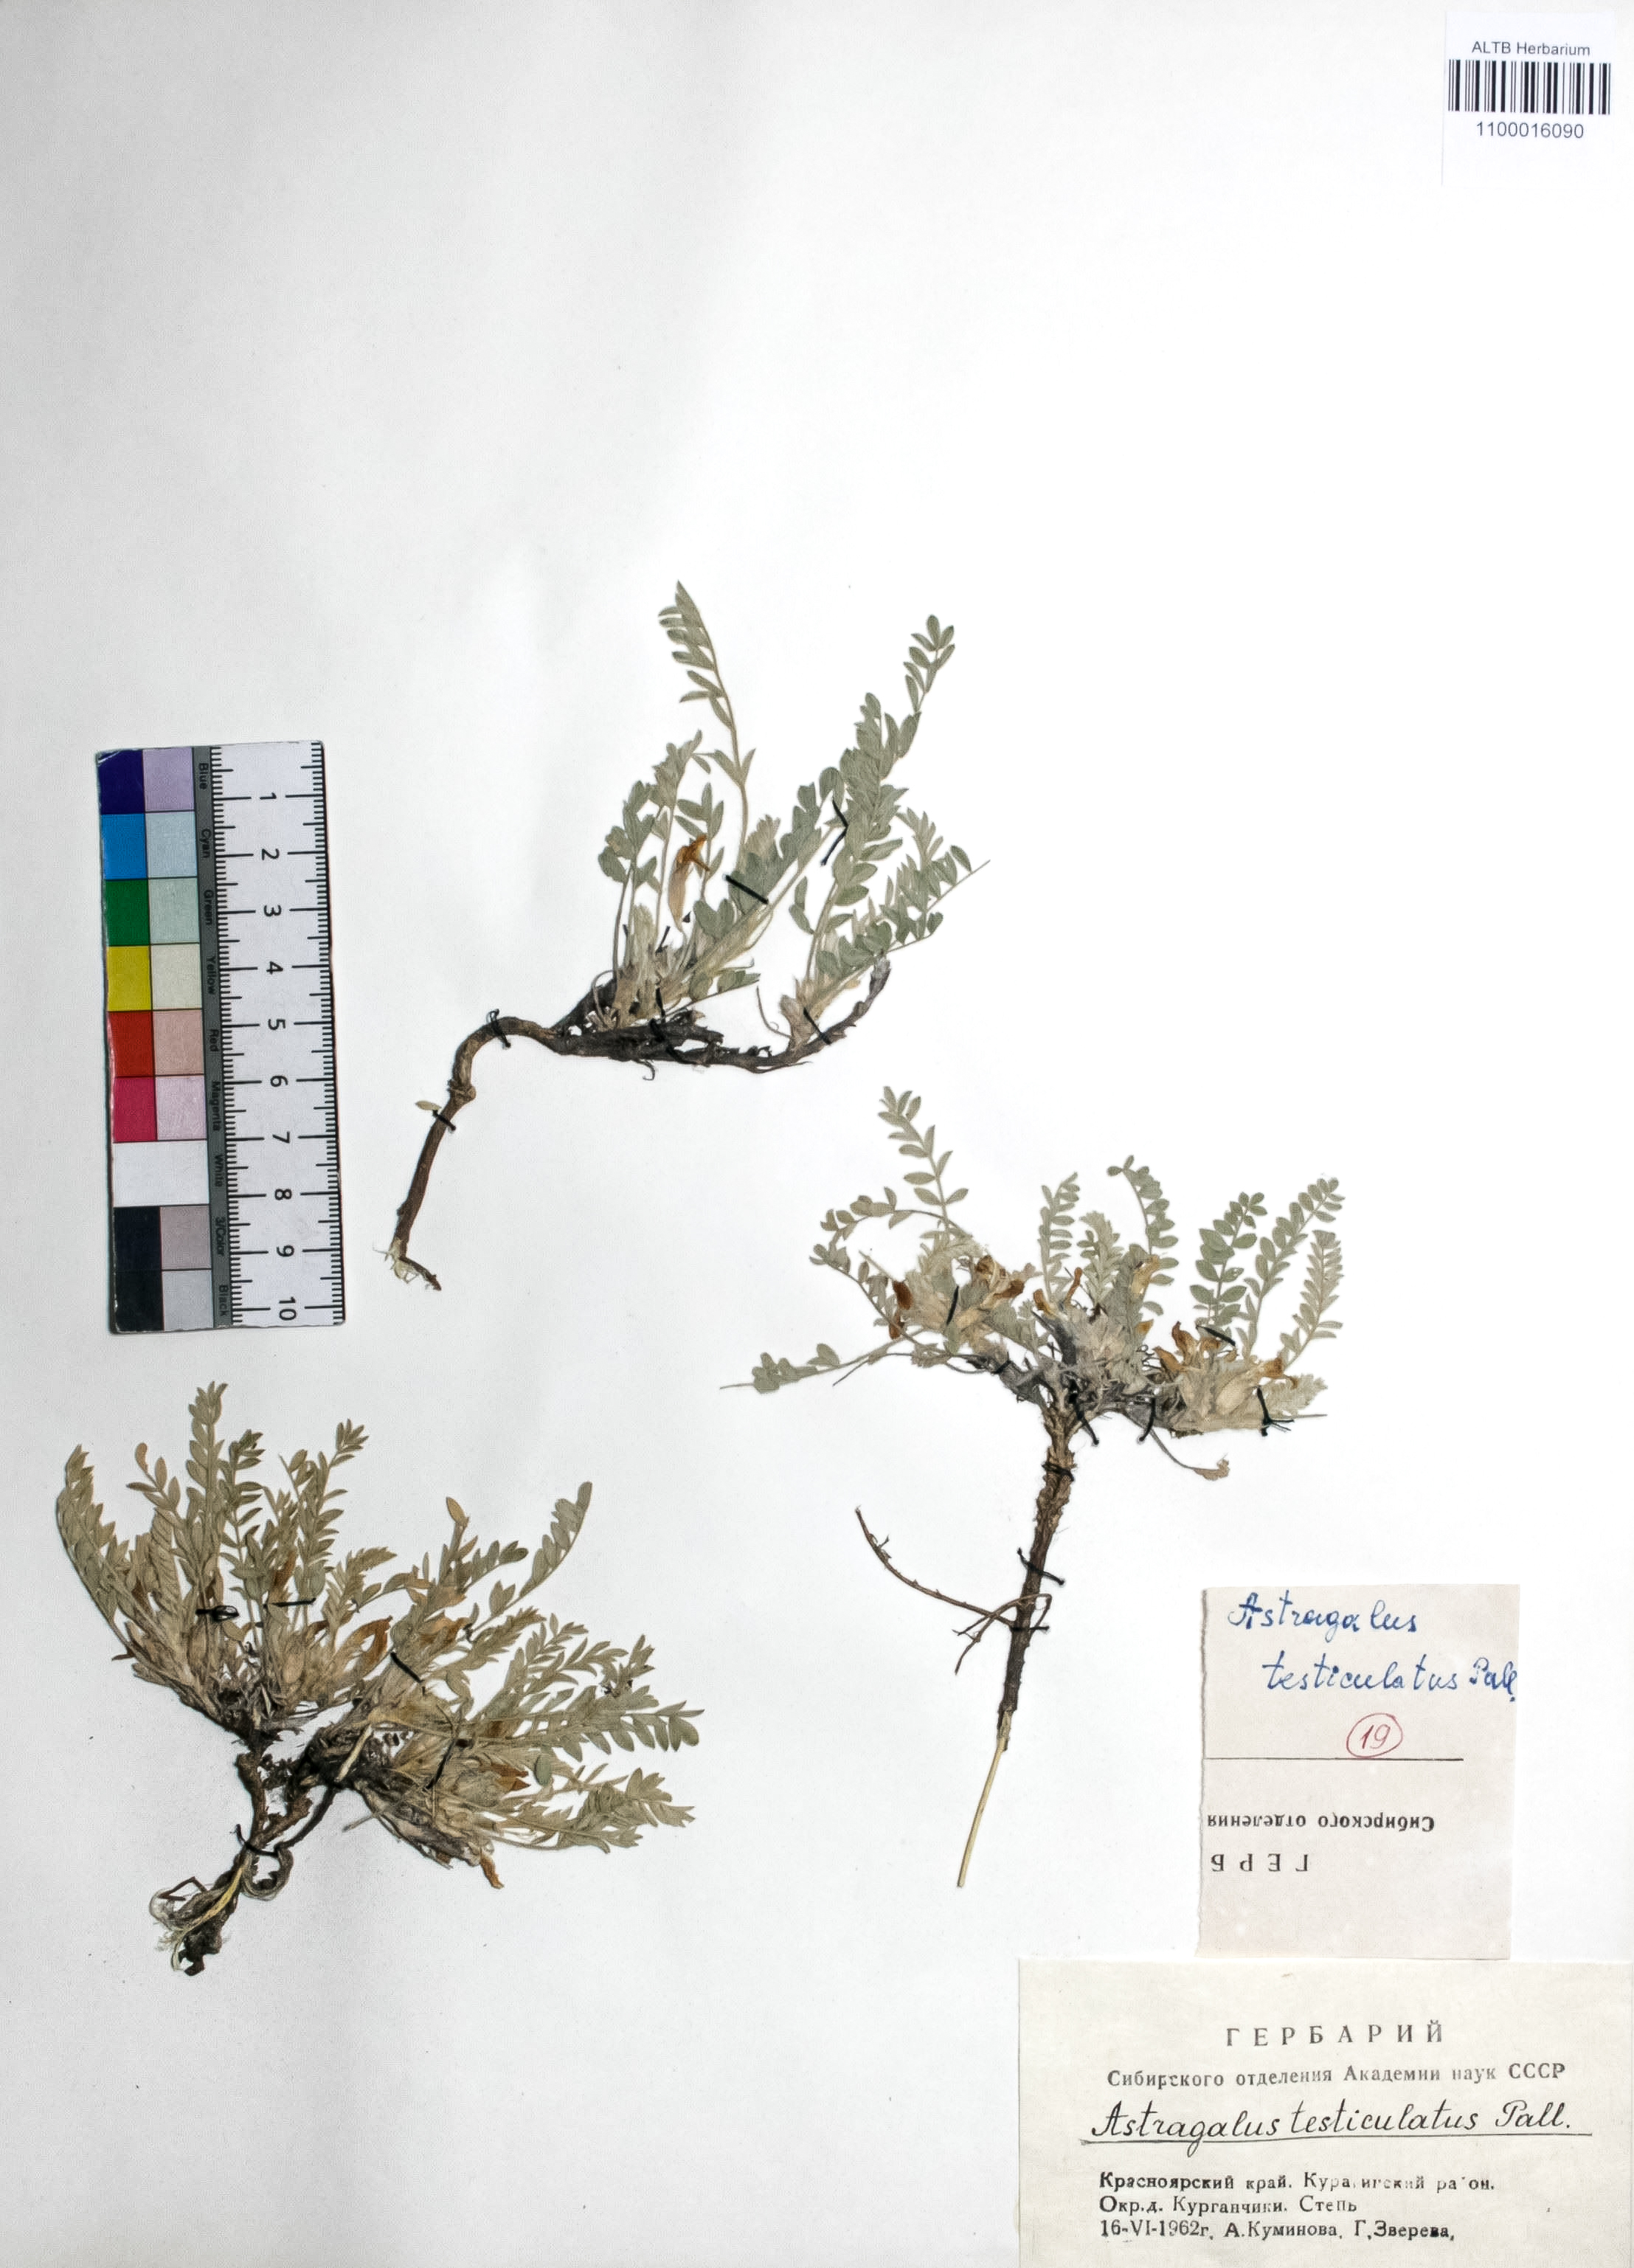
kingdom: Plantae
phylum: Tracheophyta
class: Magnoliopsida
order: Fabales
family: Fabaceae
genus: Astragalus
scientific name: Astragalus testiculatus
